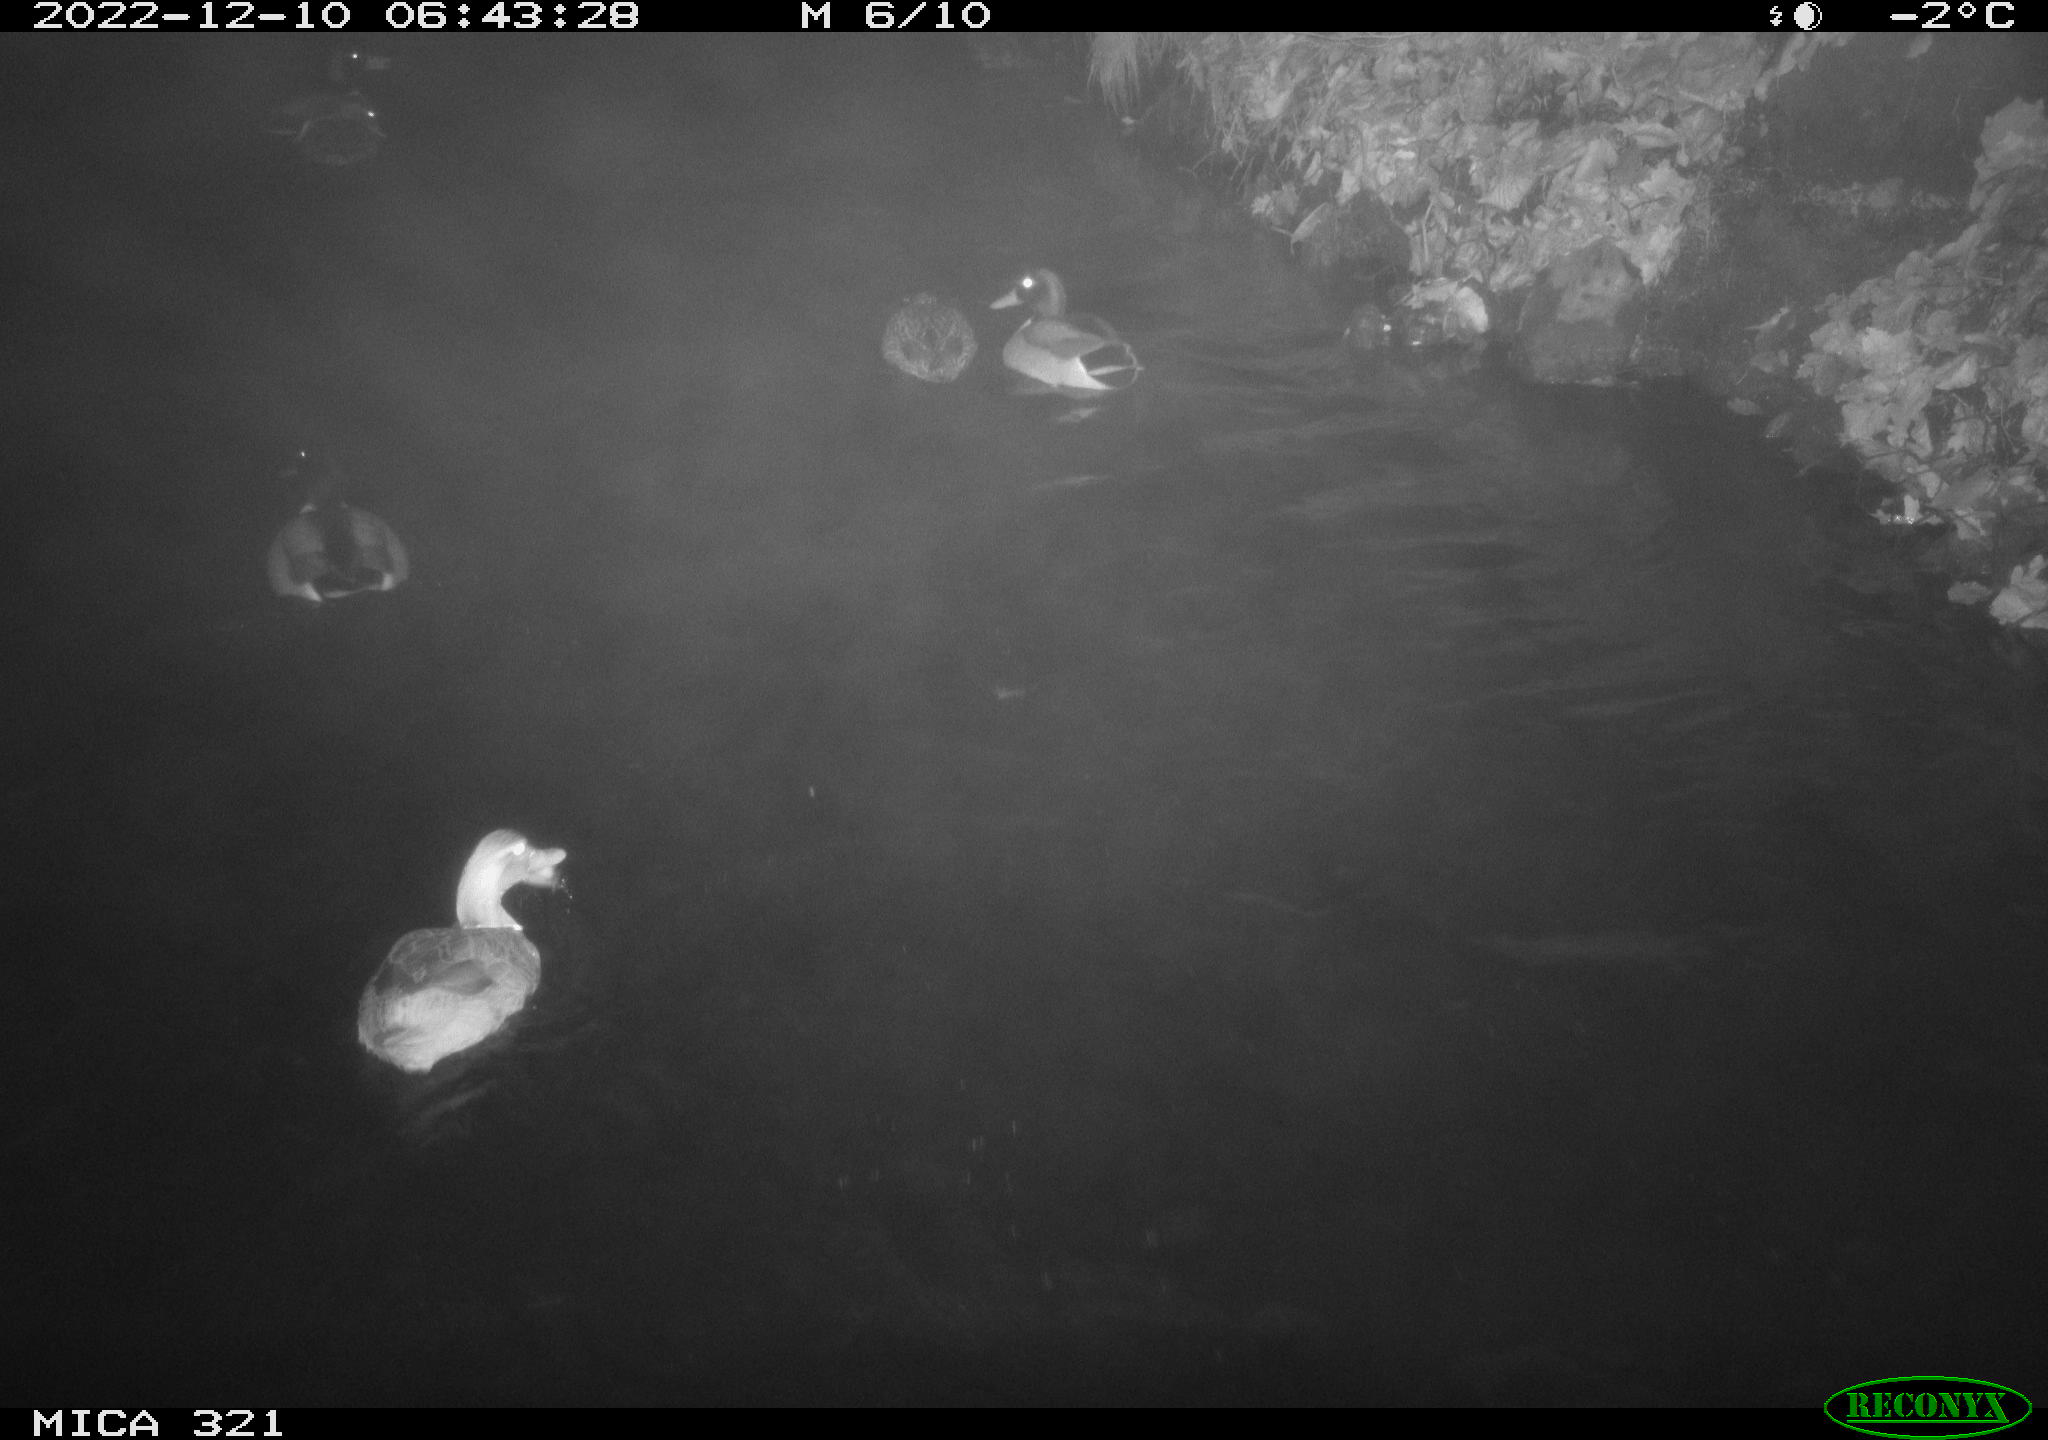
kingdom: Animalia
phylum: Chordata
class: Aves
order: Anseriformes
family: Anatidae
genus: Anas
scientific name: Anas
